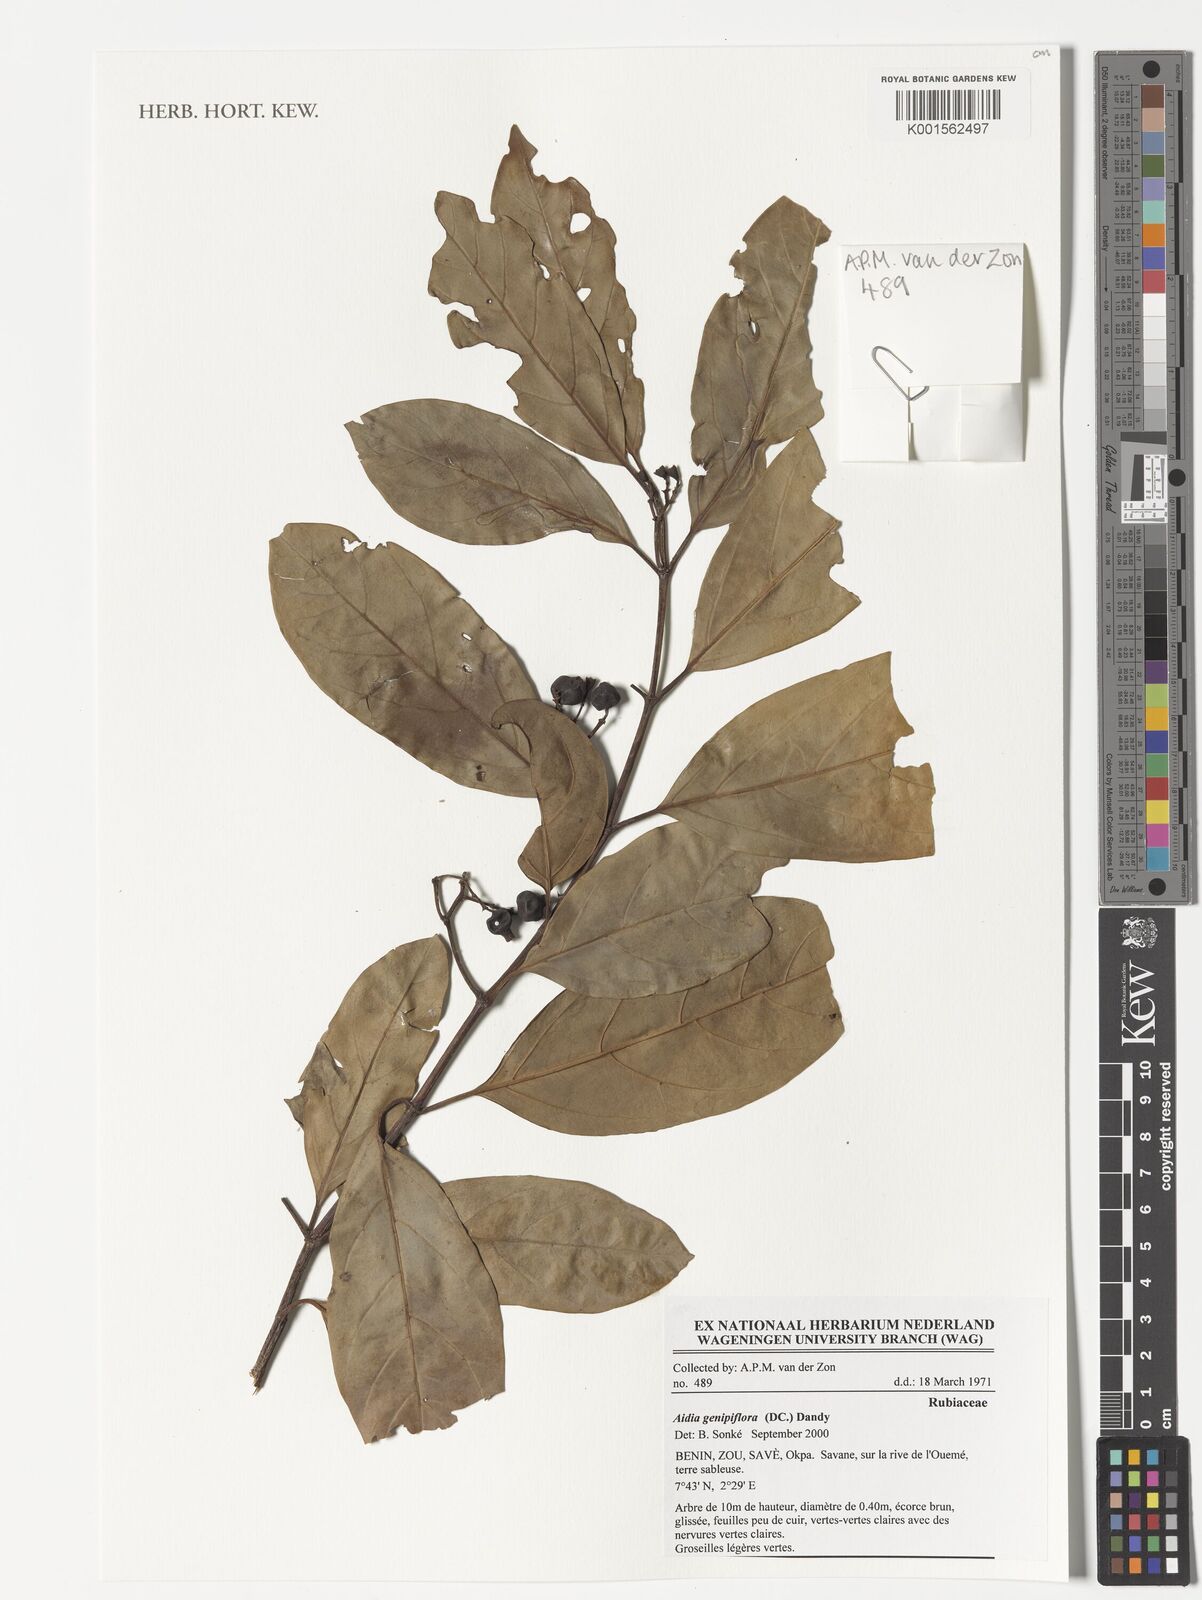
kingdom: Plantae
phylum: Tracheophyta
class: Magnoliopsida
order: Gentianales
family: Rubiaceae
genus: Aidia
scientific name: Aidia genipiflora
